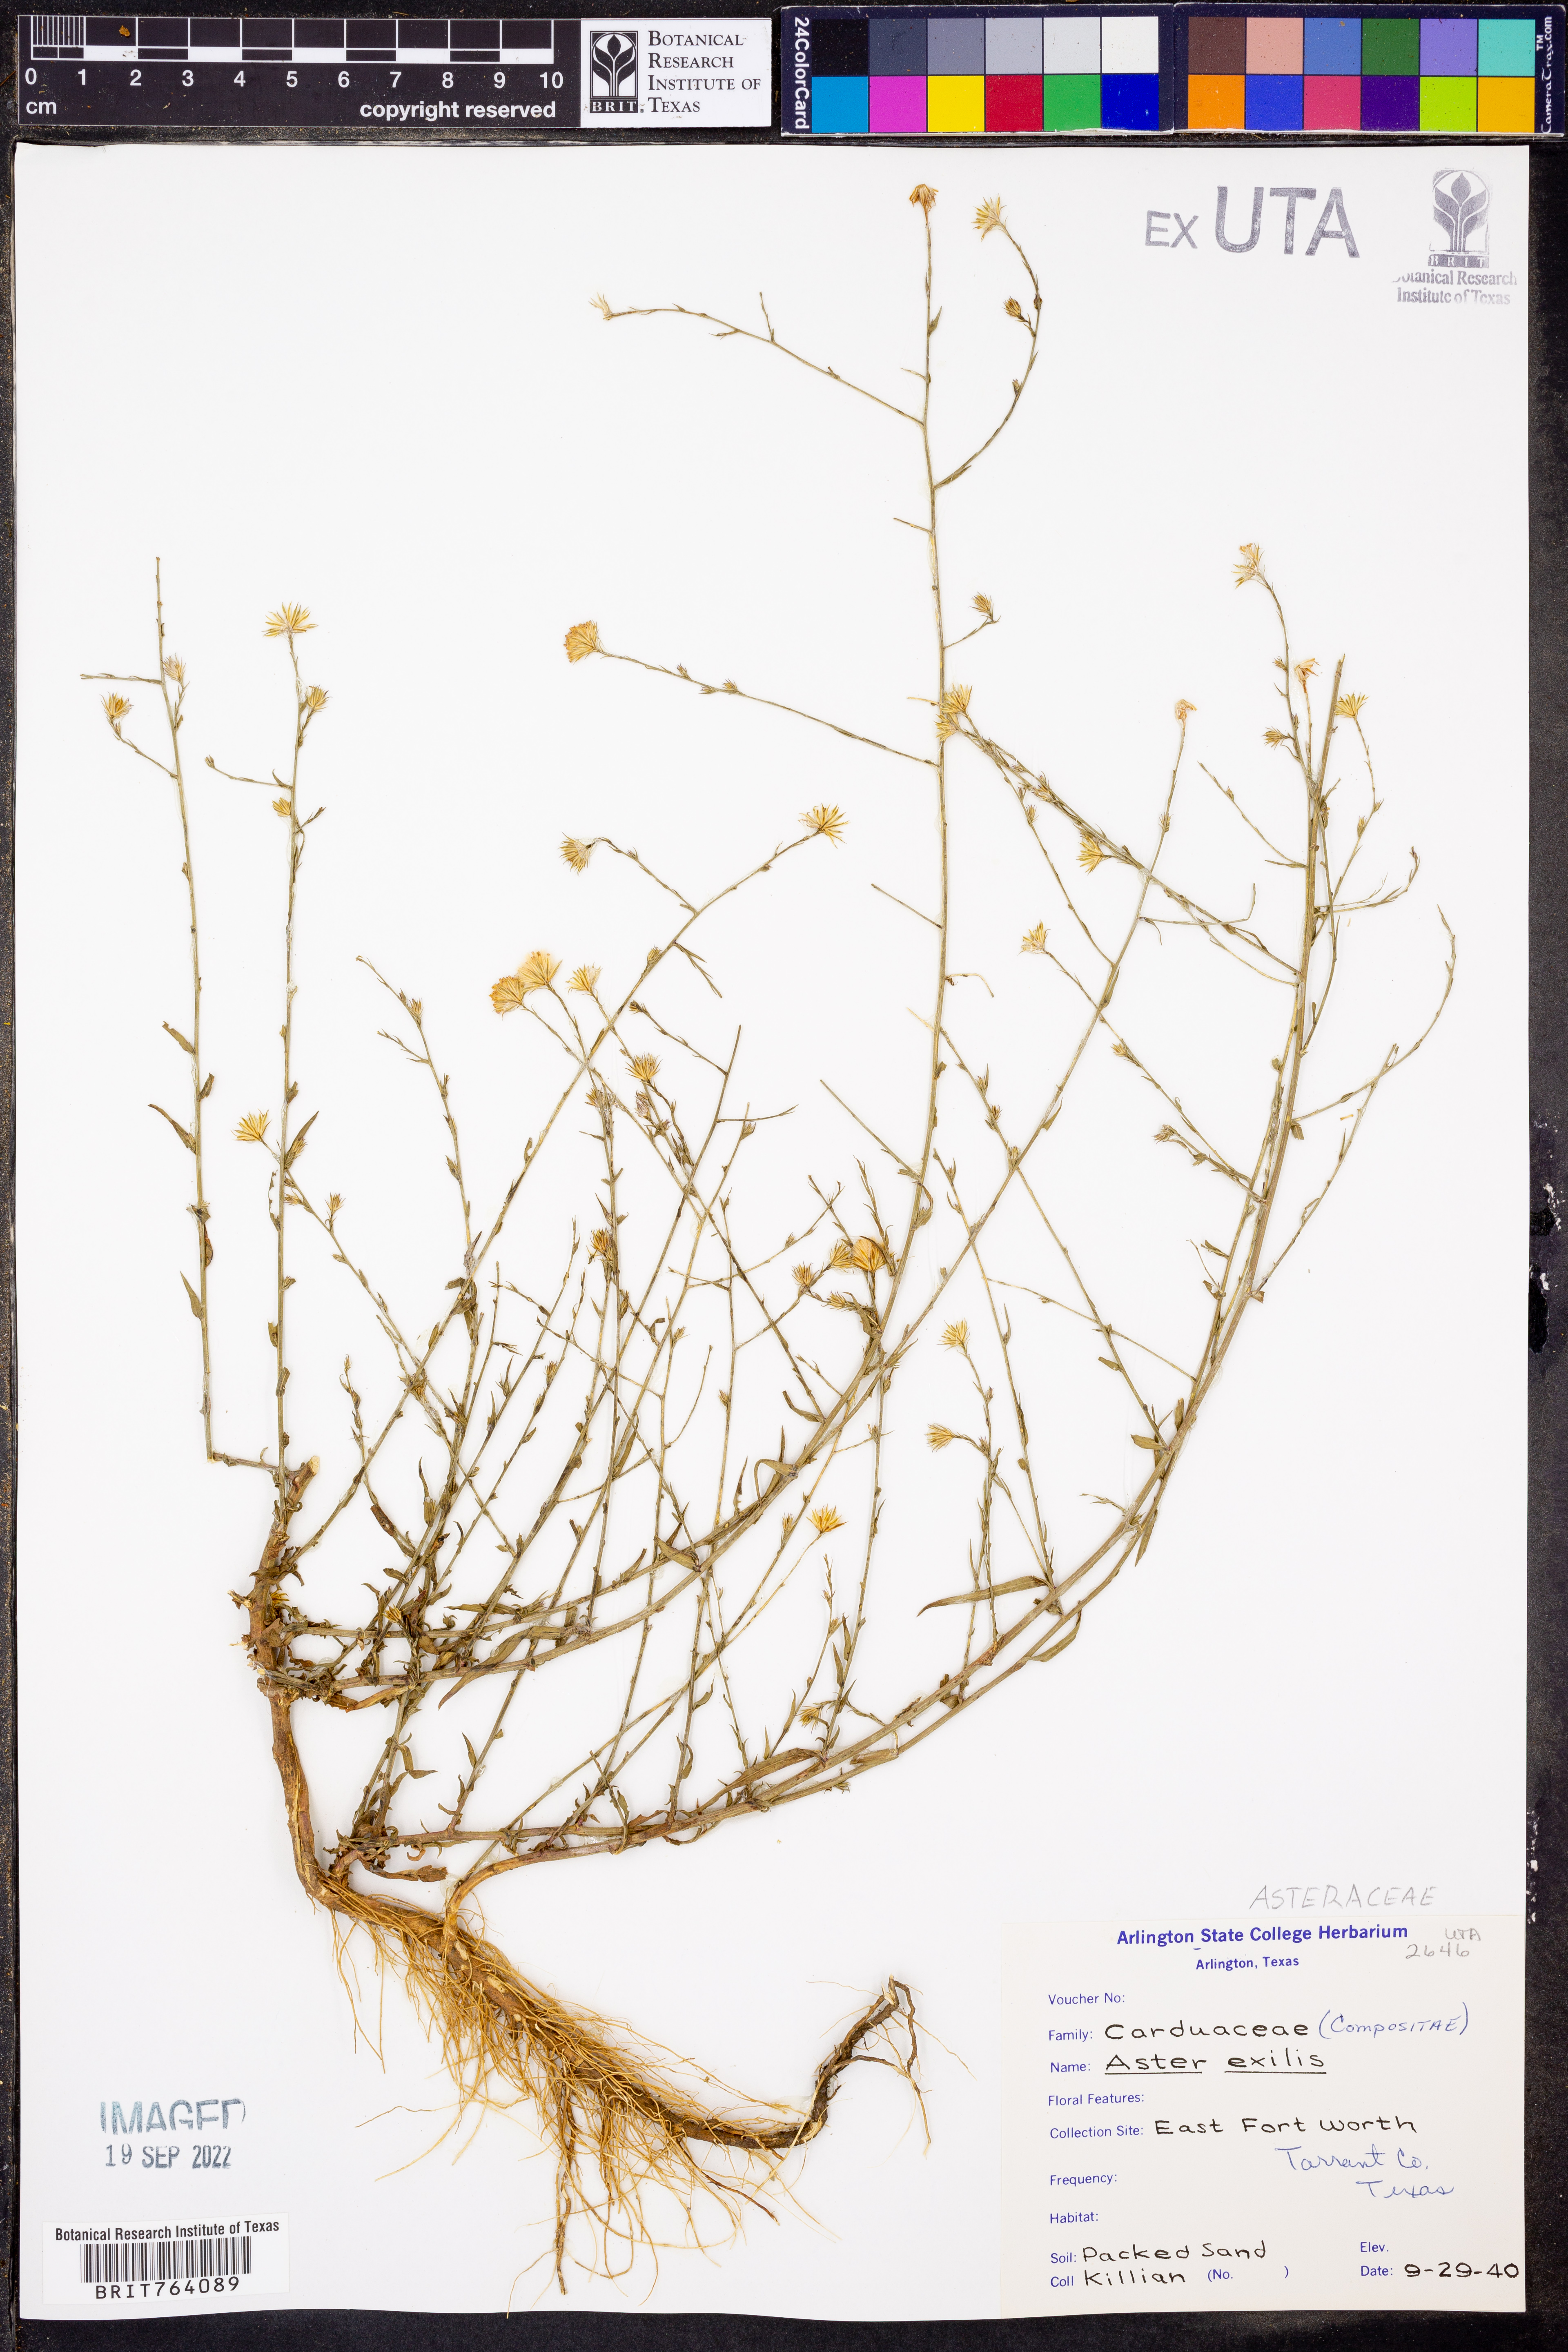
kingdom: Plantae
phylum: Tracheophyta
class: Magnoliopsida
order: Asterales
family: Asteraceae
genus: Symphyotrichum
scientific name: Symphyotrichum expansum
